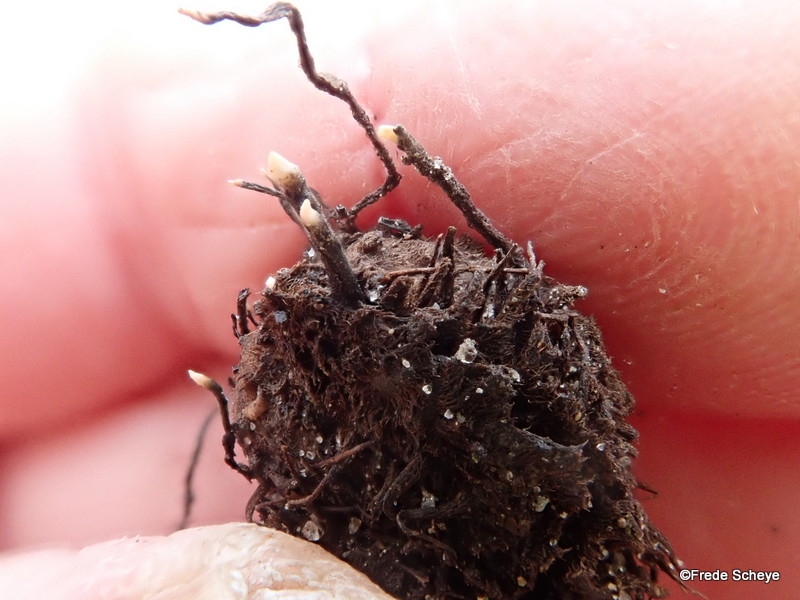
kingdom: Fungi
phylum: Ascomycota
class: Sordariomycetes
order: Xylariales
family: Xylariaceae
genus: Xylaria
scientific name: Xylaria carpophila
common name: bogskål-stødsvamp
